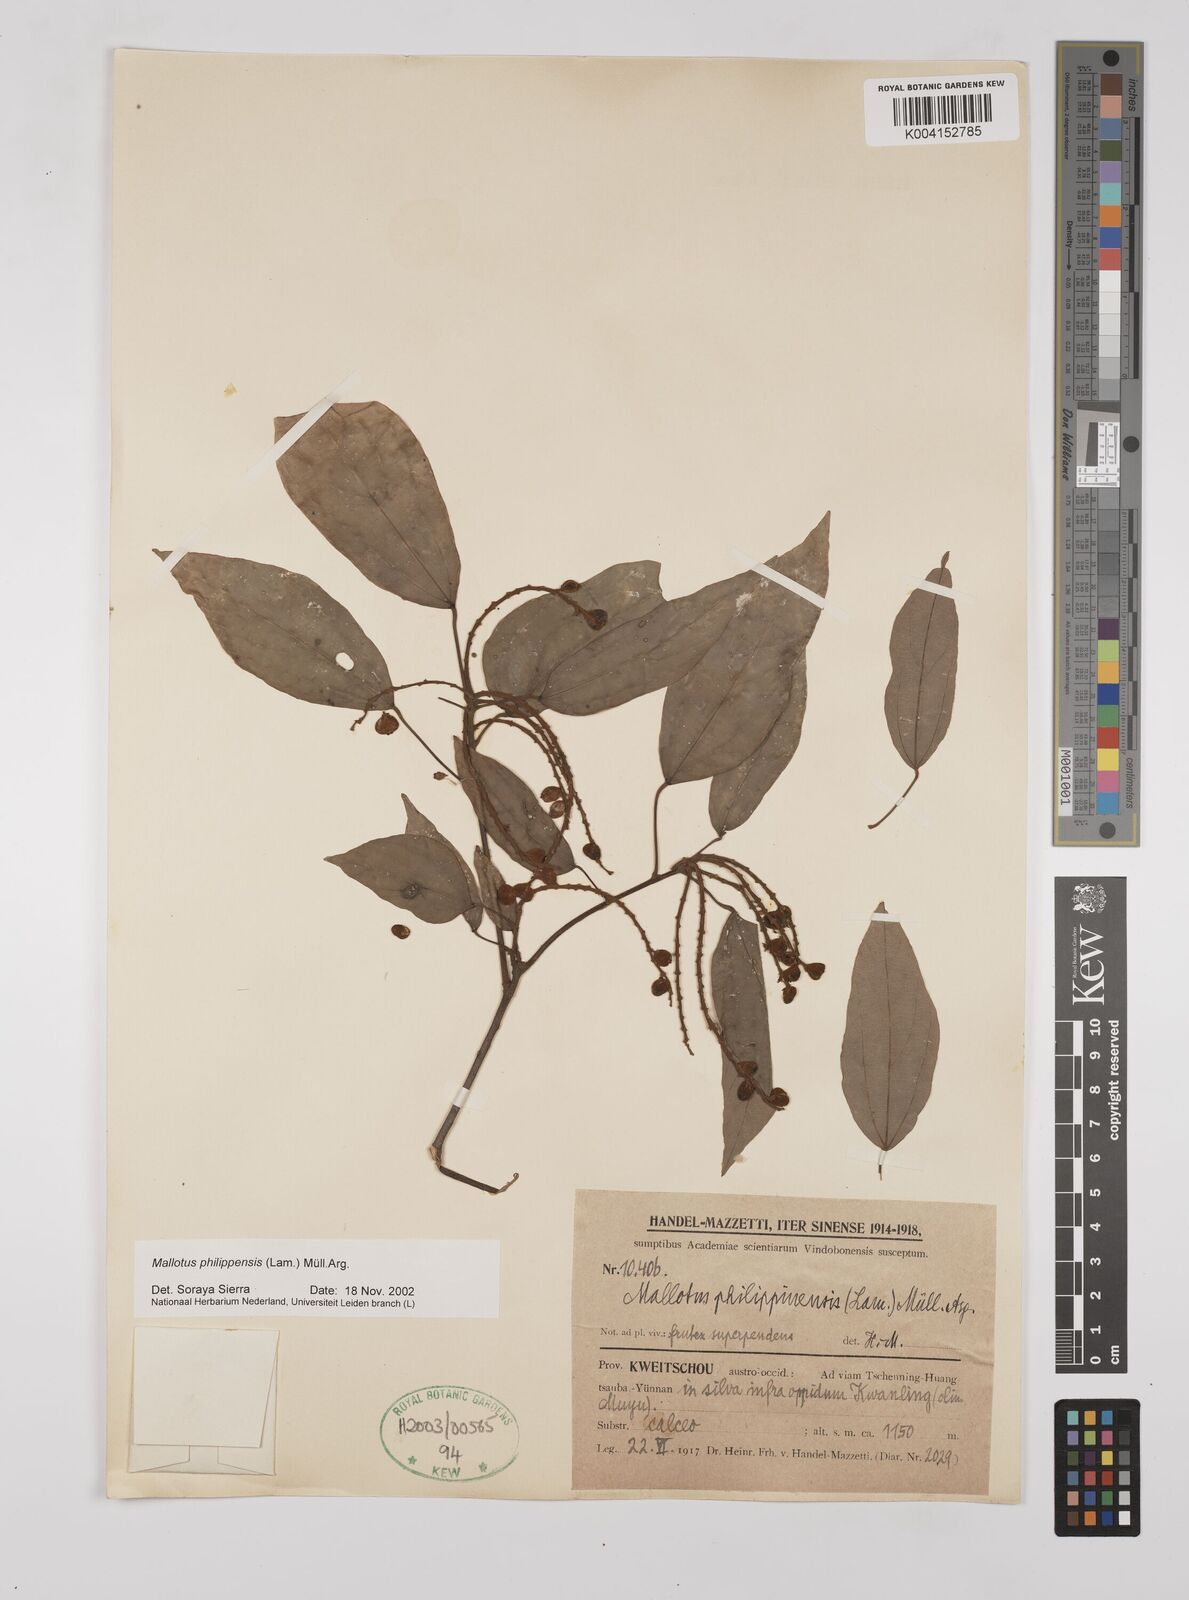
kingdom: Plantae
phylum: Tracheophyta
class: Magnoliopsida
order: Malpighiales
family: Euphorbiaceae
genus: Mallotus
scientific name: Mallotus philippensis
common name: Kamala tree
